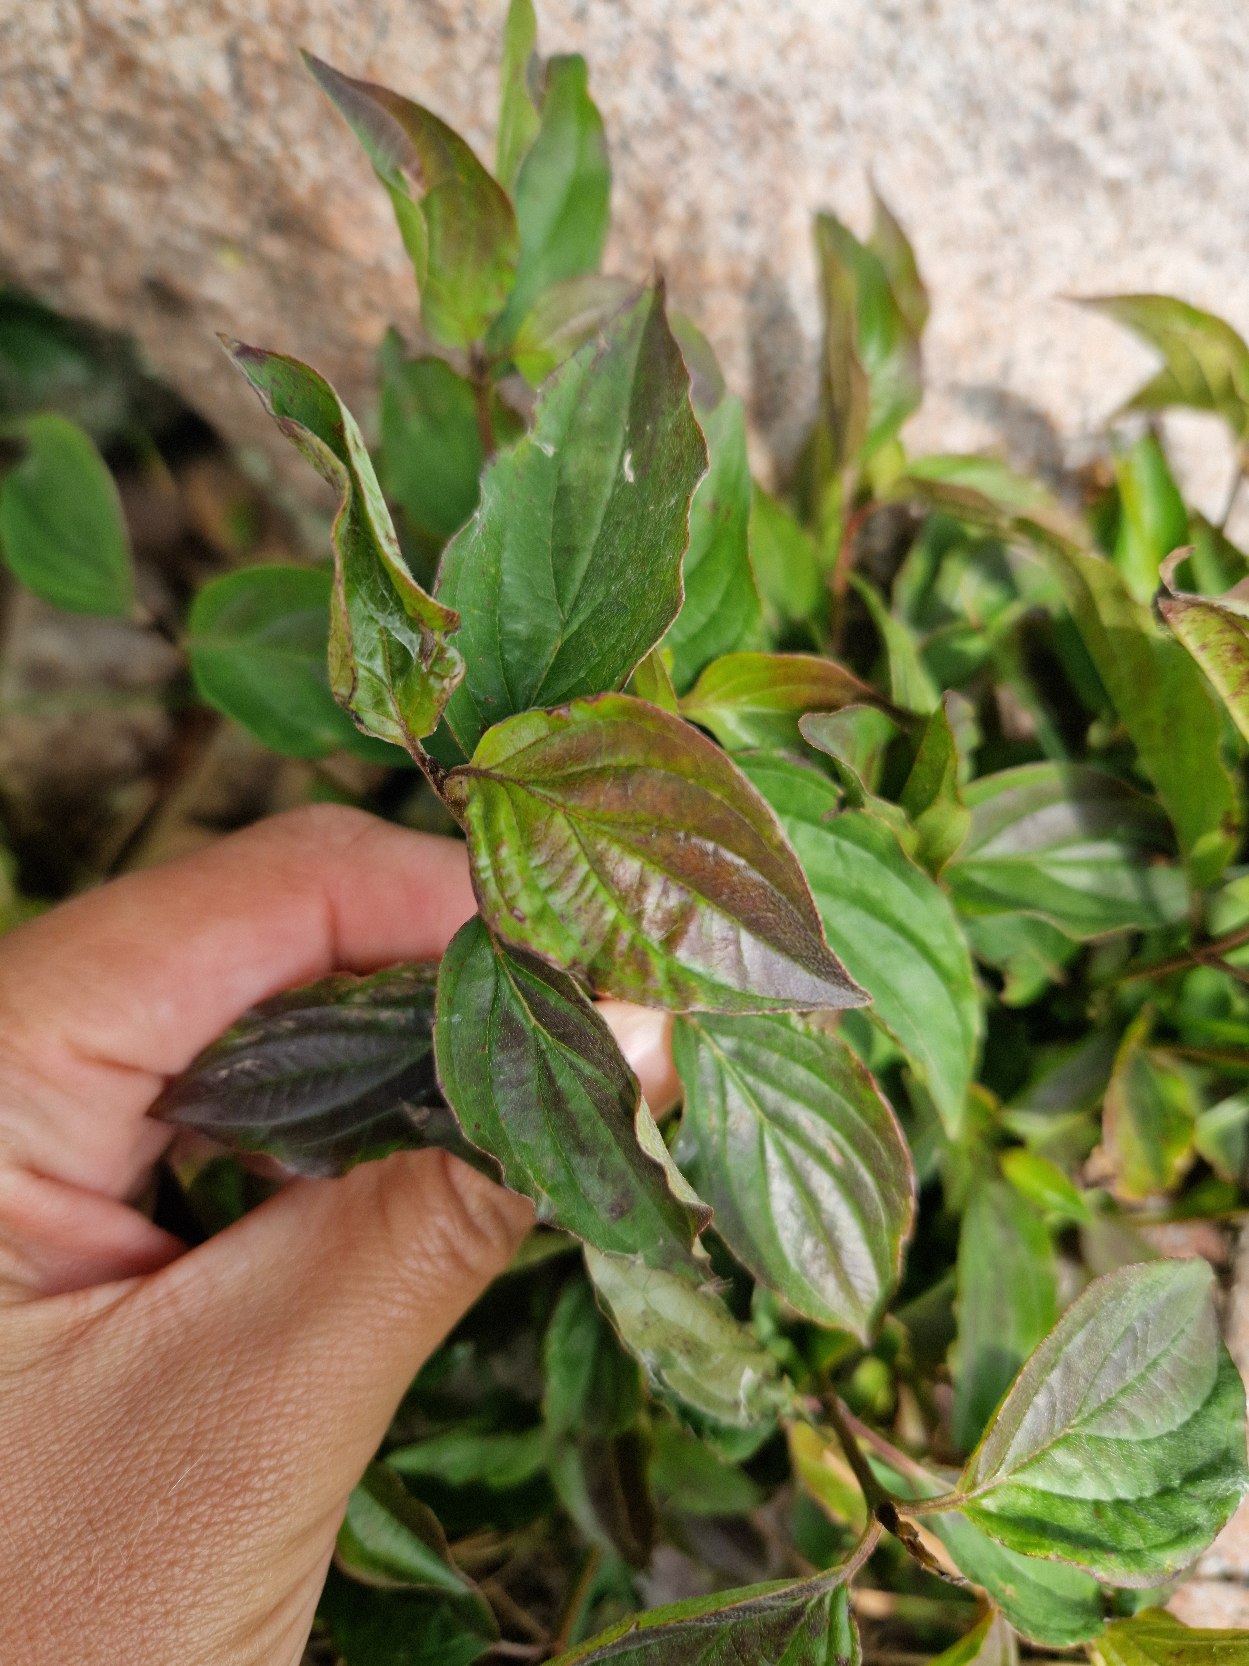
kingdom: Plantae
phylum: Tracheophyta
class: Magnoliopsida
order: Cornales
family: Cornaceae
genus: Cornus
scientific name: Cornus sanguinea
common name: Rød kornel
